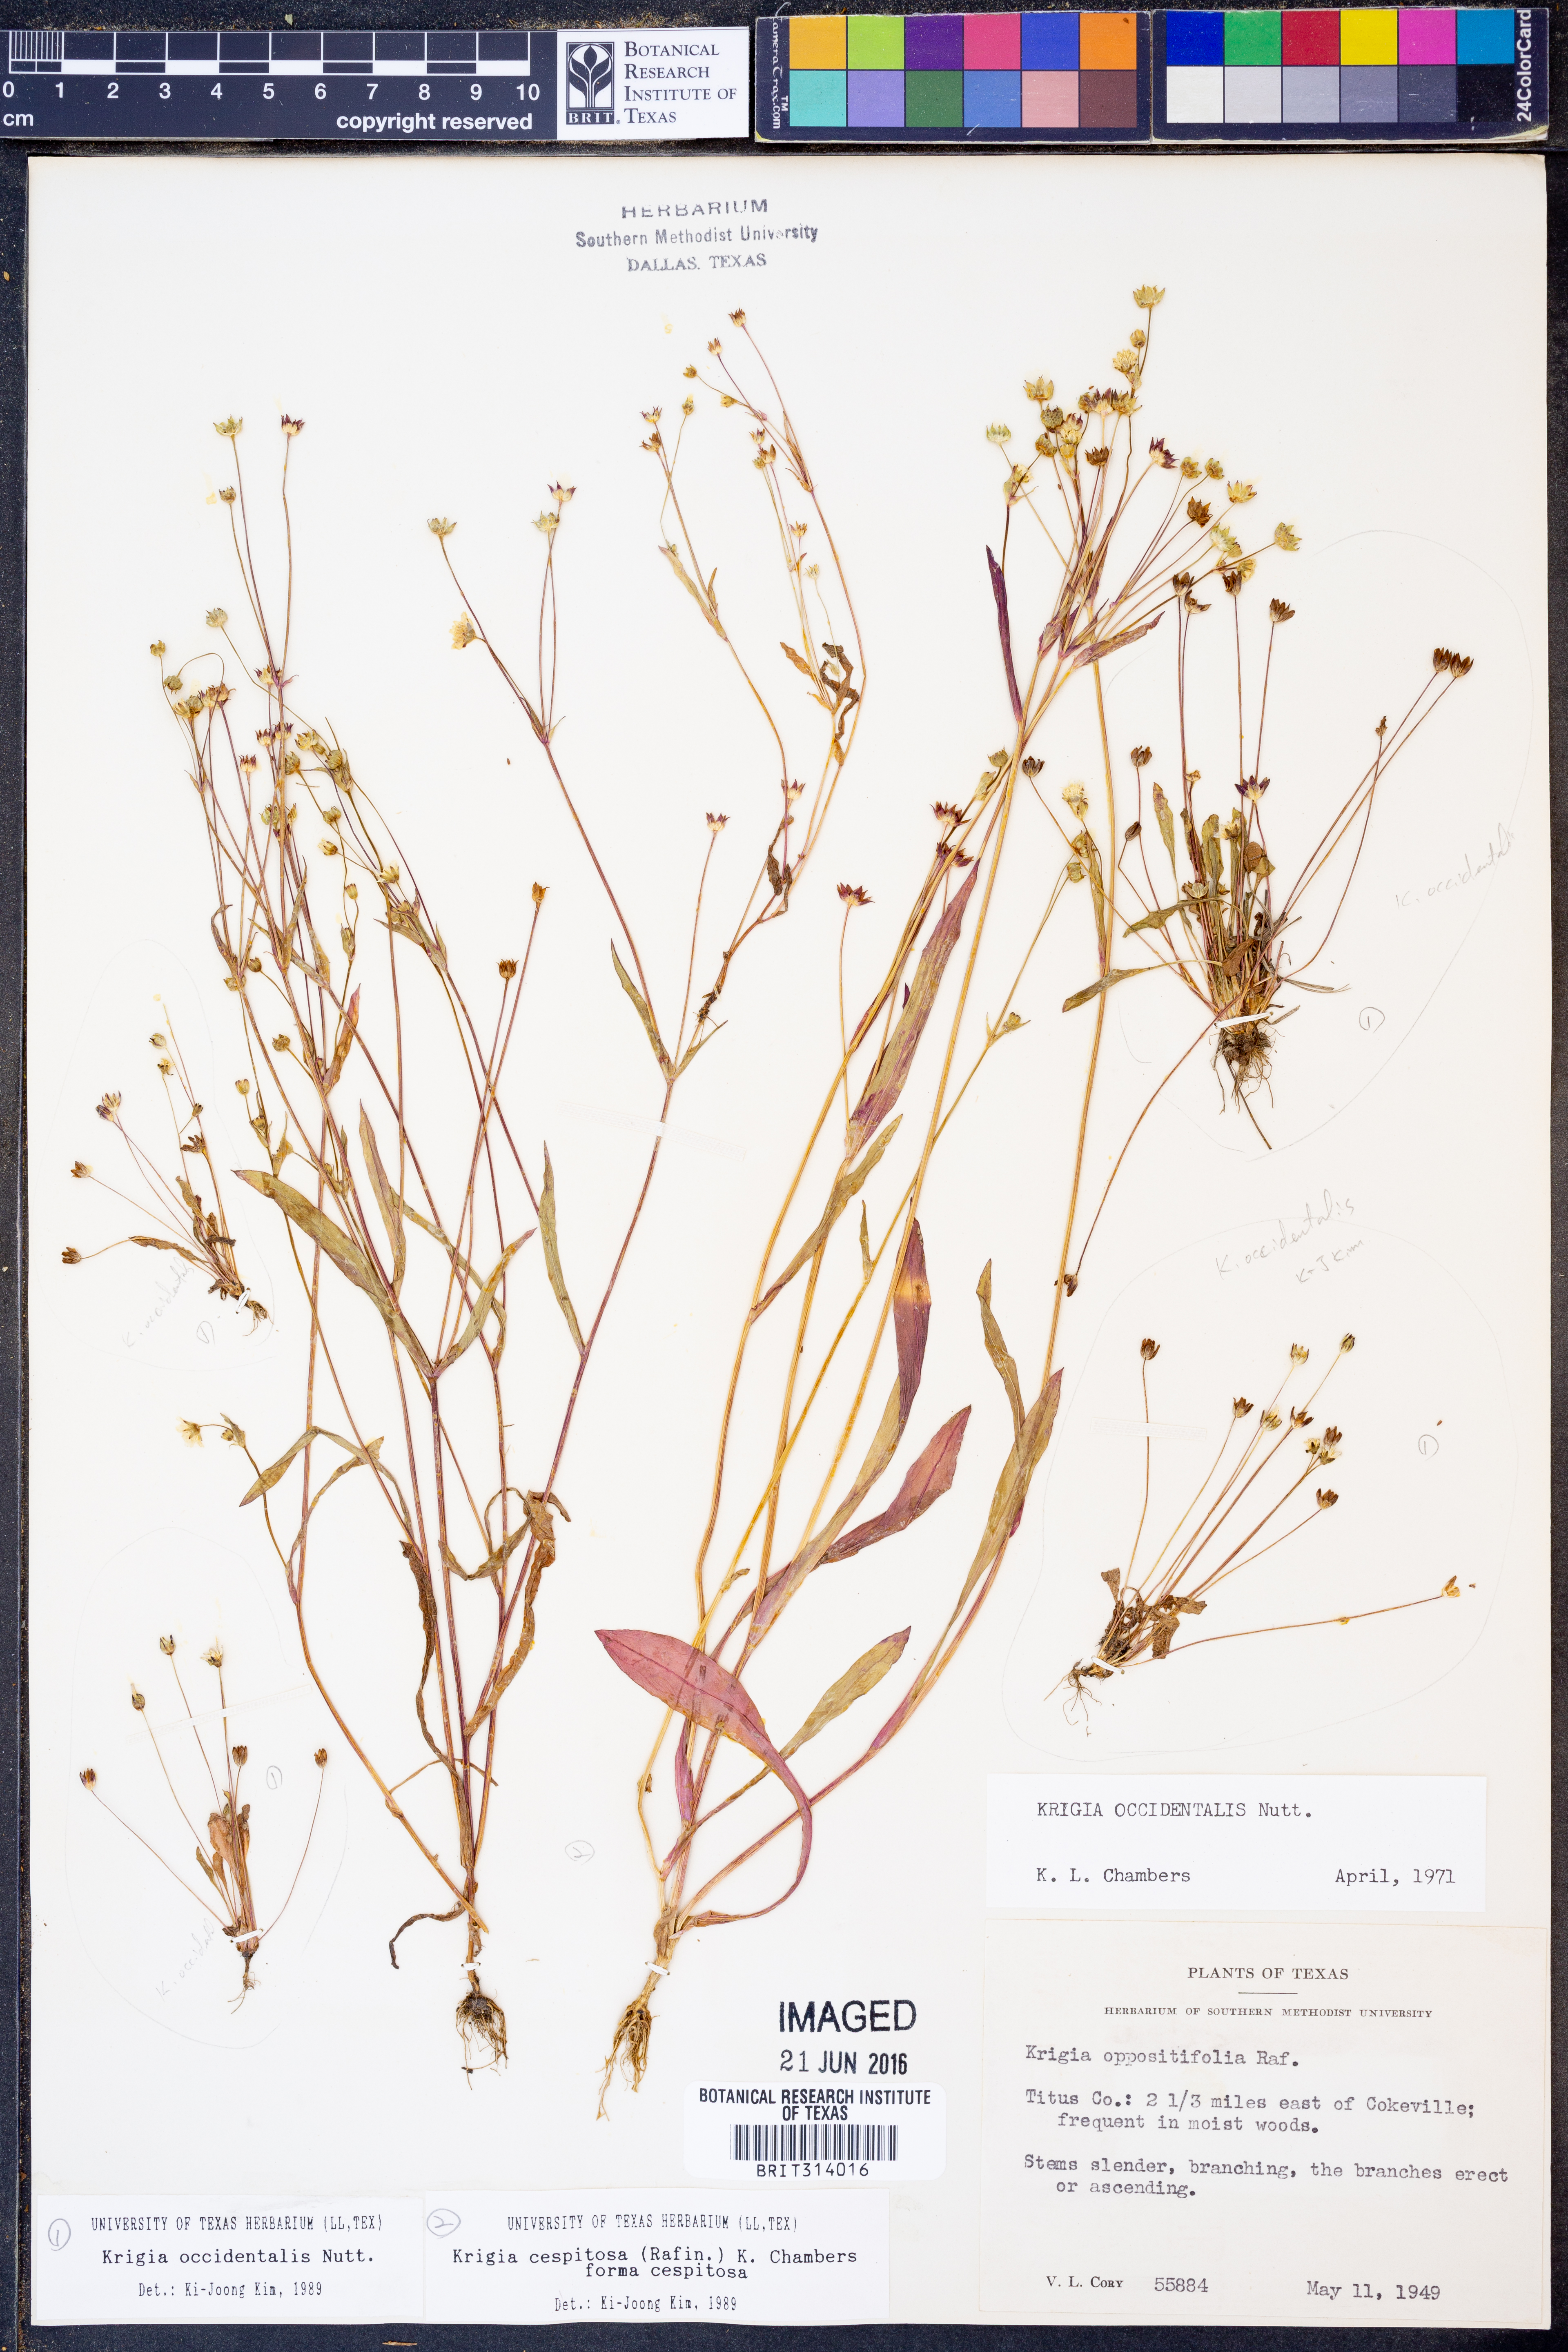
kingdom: Plantae
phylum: Tracheophyta
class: Magnoliopsida
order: Asterales
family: Asteraceae
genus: Krigia
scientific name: Krigia occidentalis
